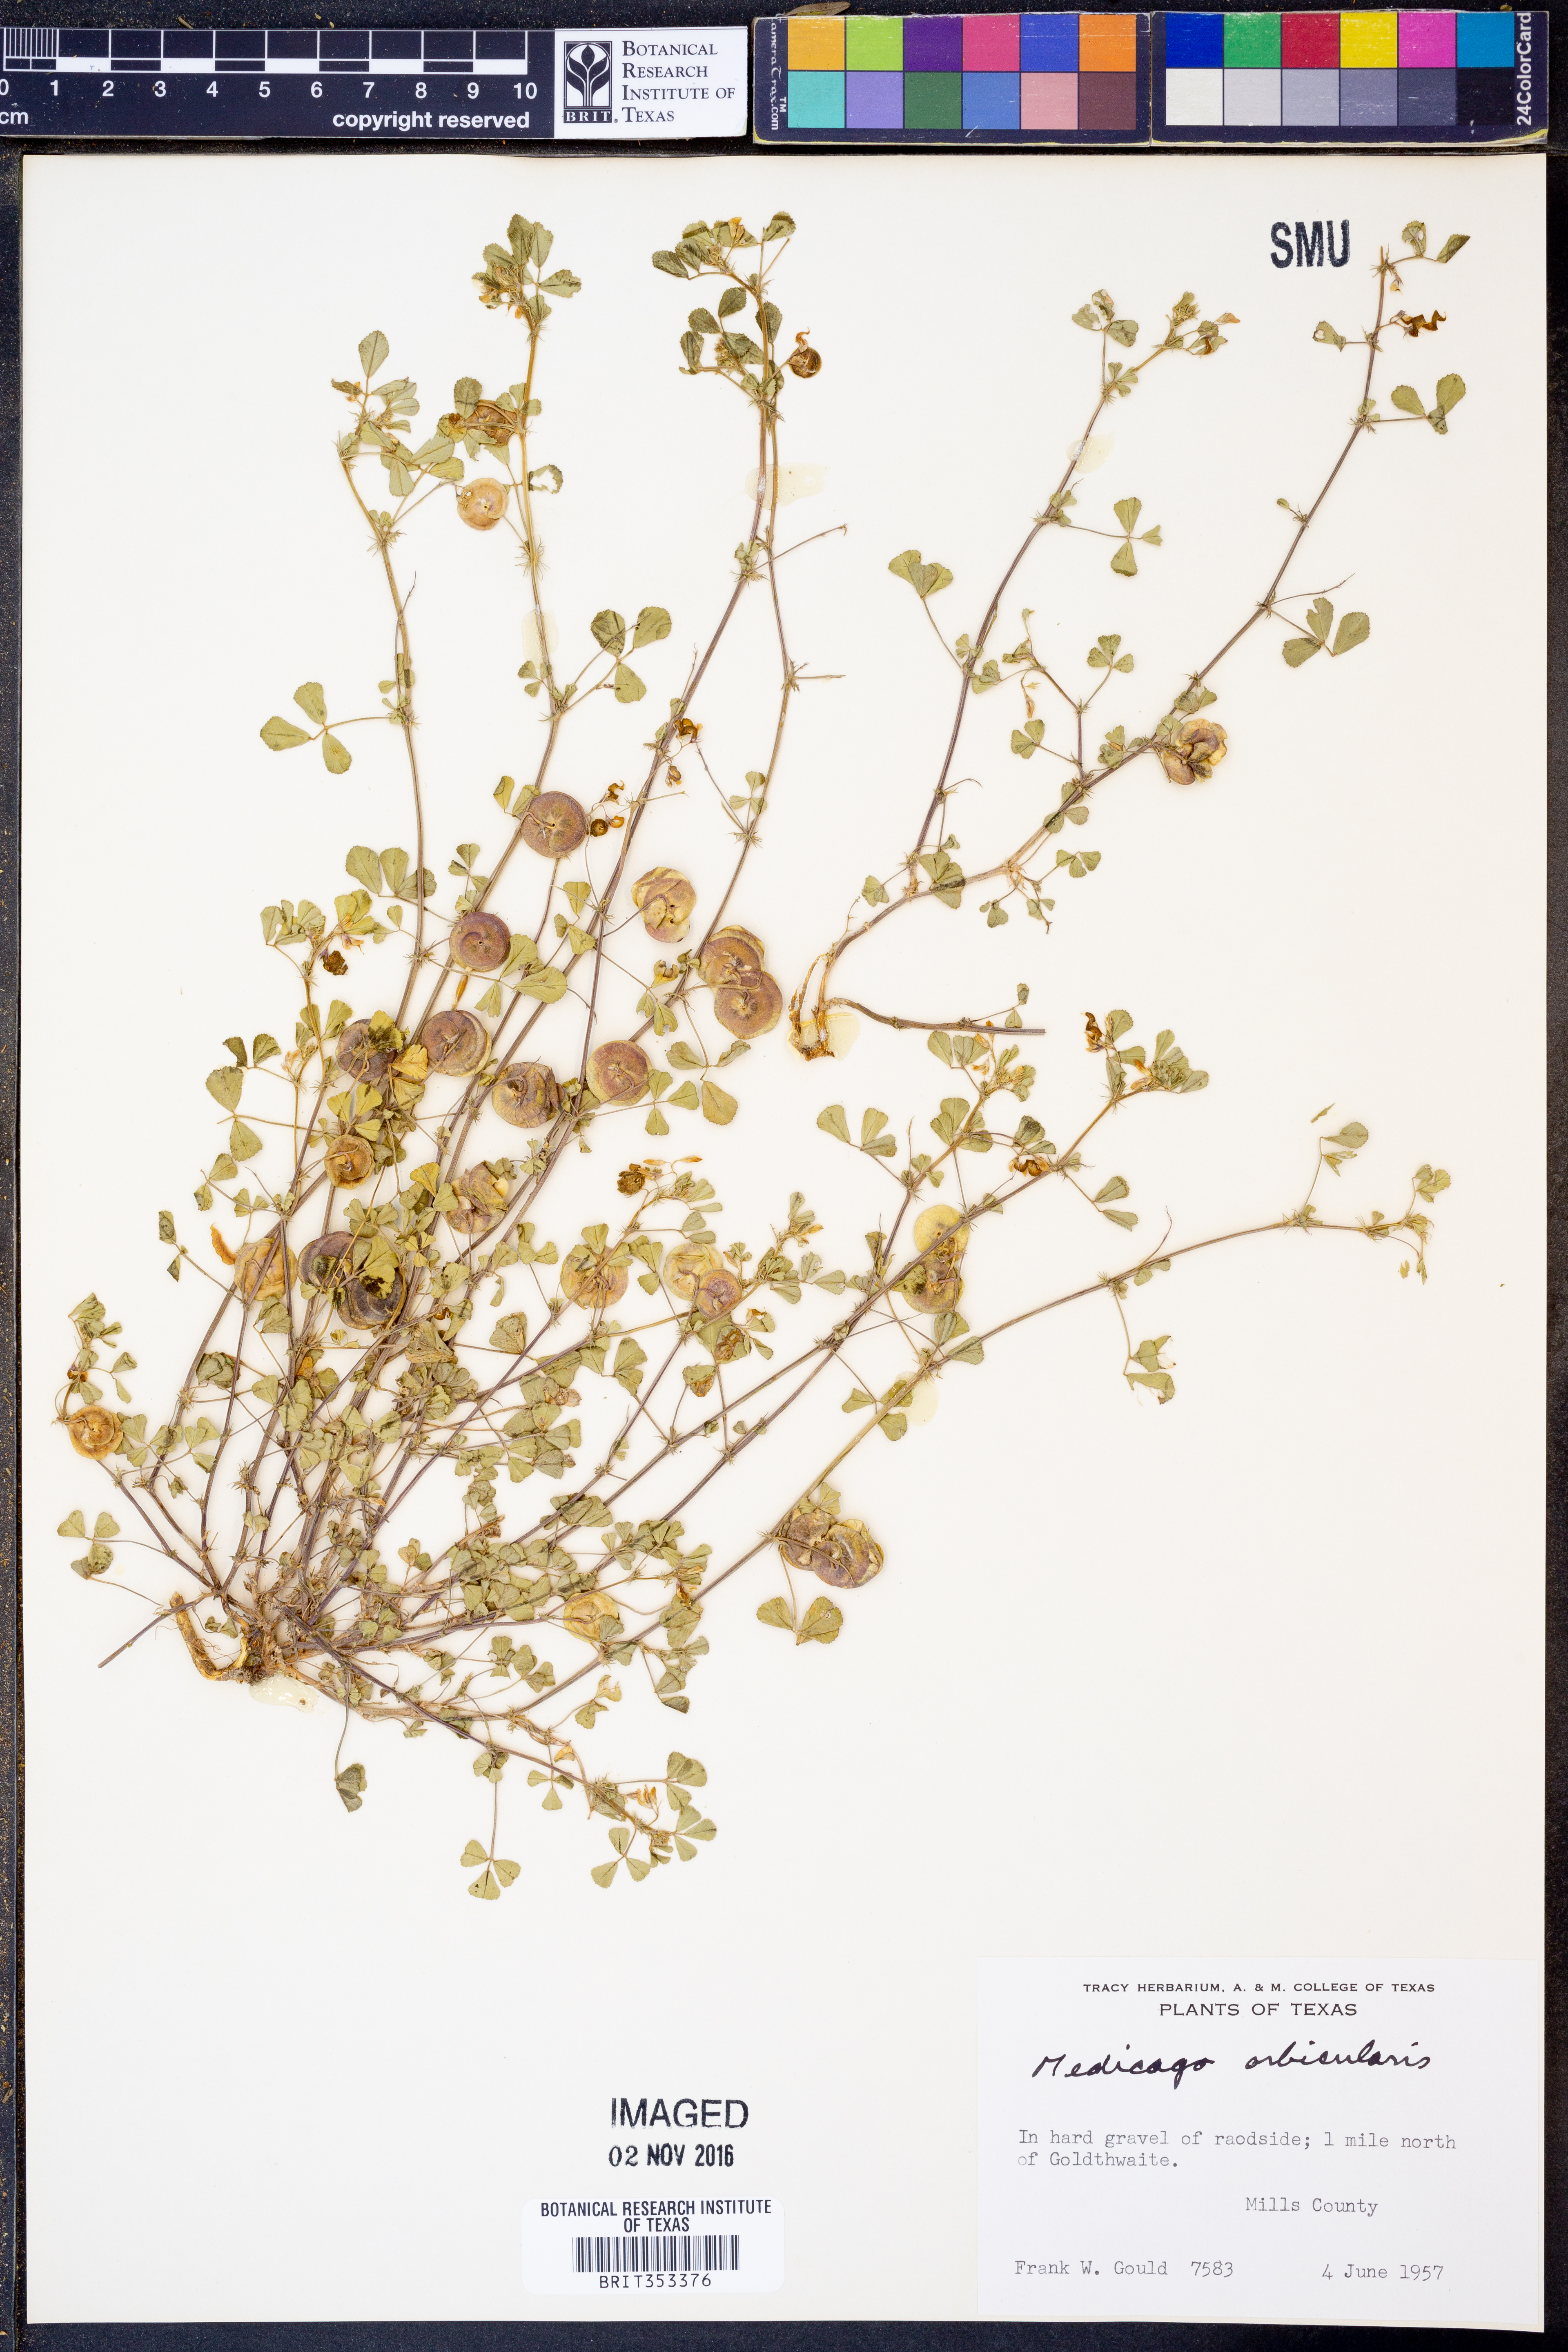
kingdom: Plantae
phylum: Tracheophyta
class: Magnoliopsida
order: Fabales
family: Fabaceae
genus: Medicago
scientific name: Medicago orbicularis
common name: Button medick
